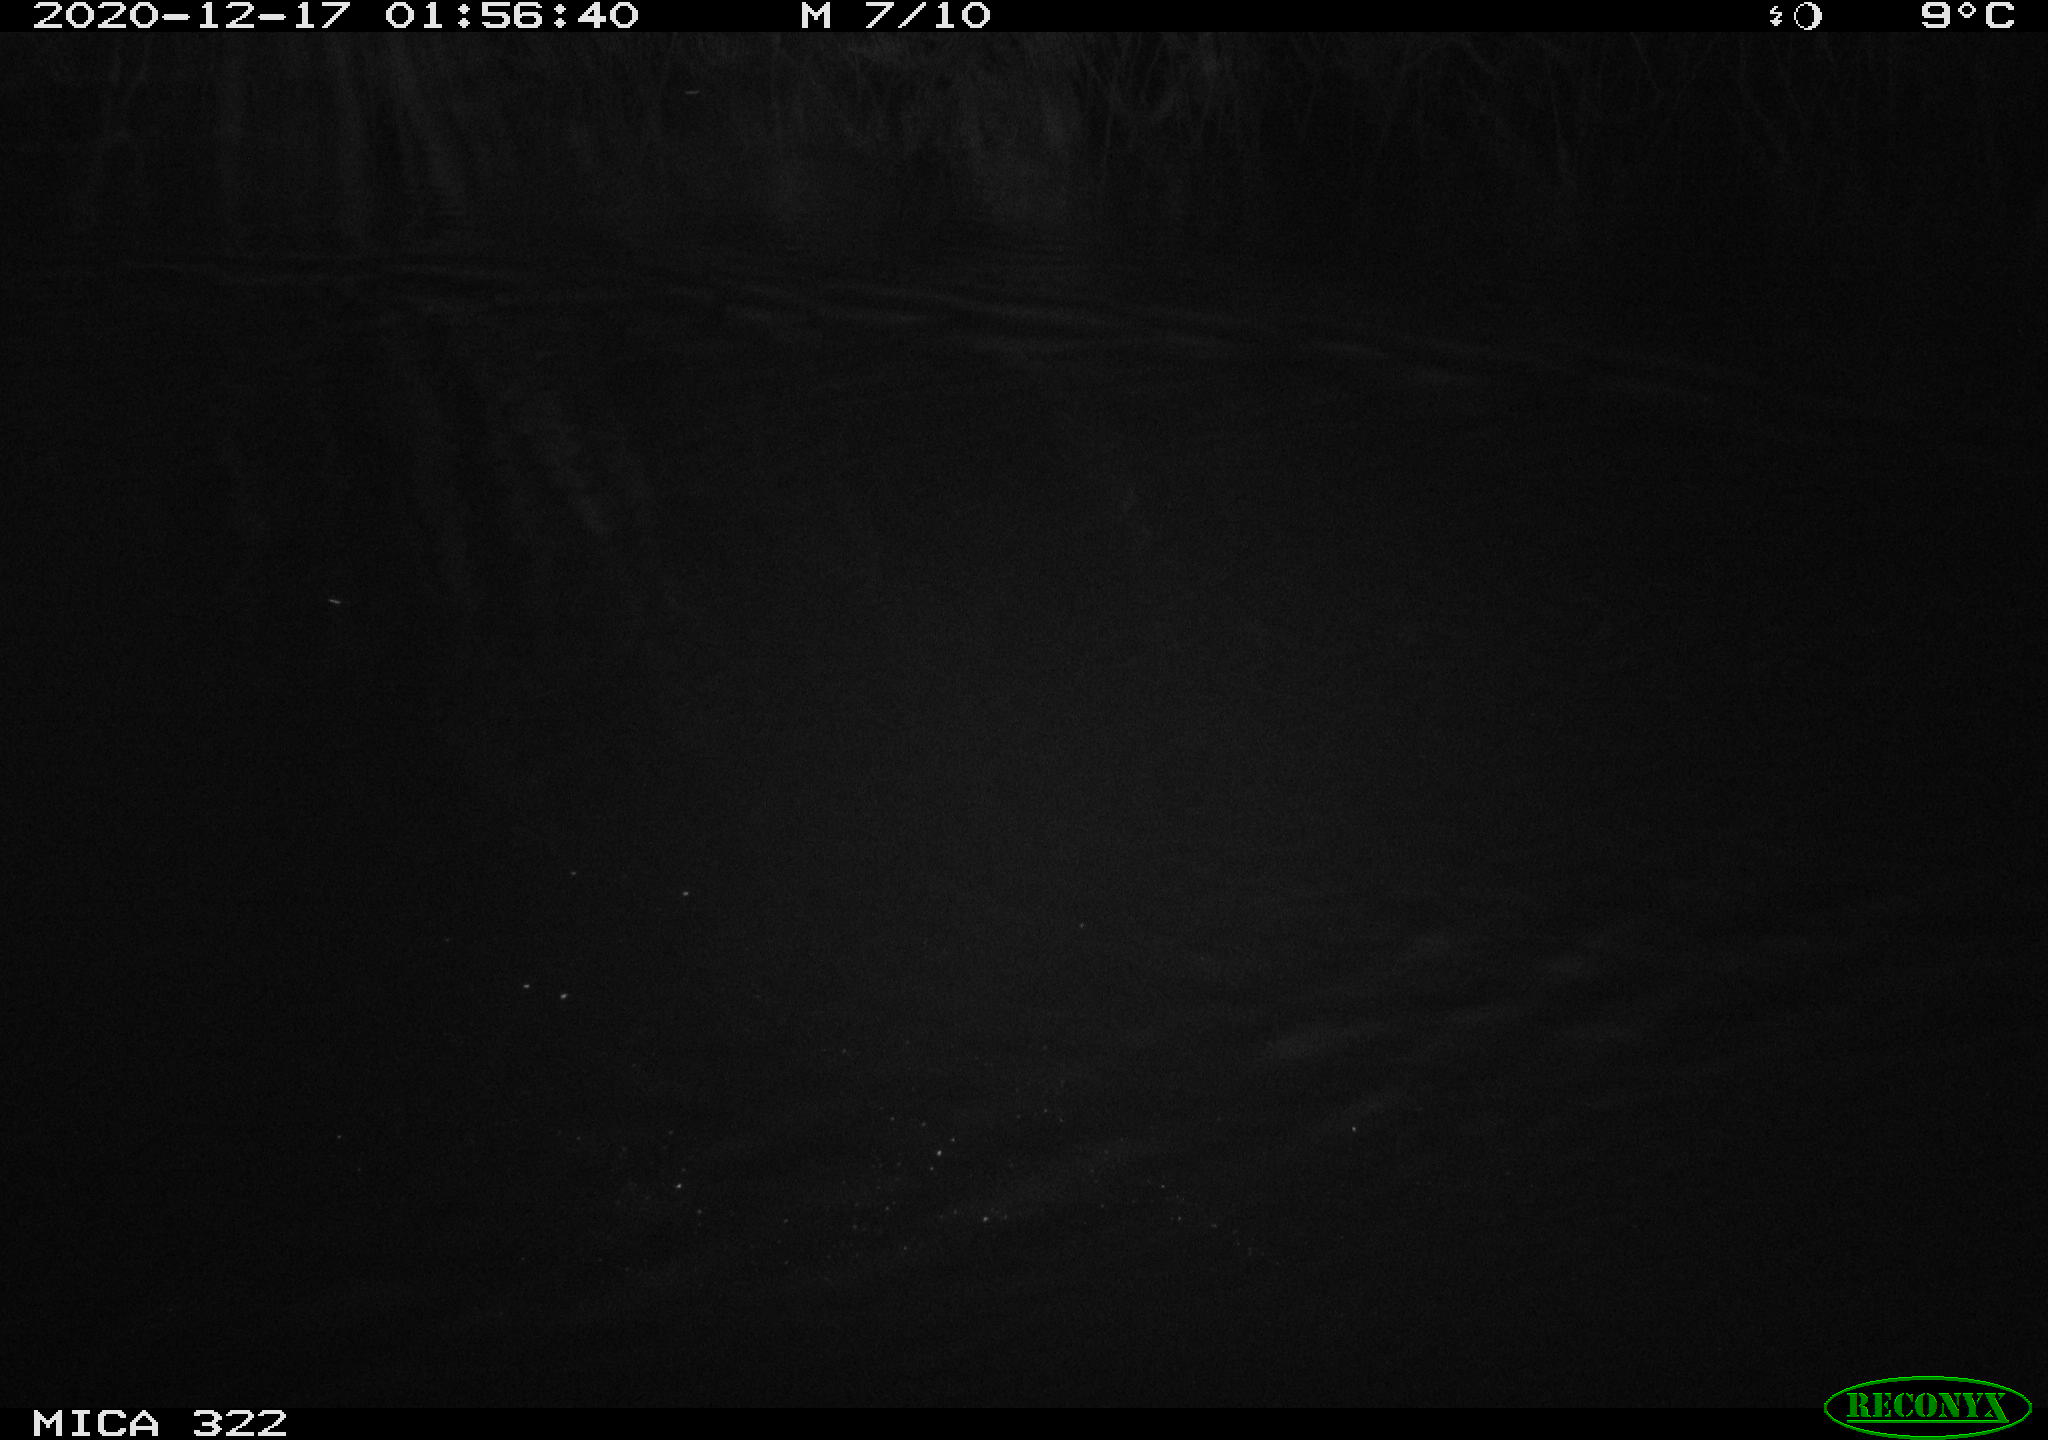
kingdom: Animalia
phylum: Chordata
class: Mammalia
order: Rodentia
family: Muridae
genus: Rattus
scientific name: Rattus norvegicus
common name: Brown rat
